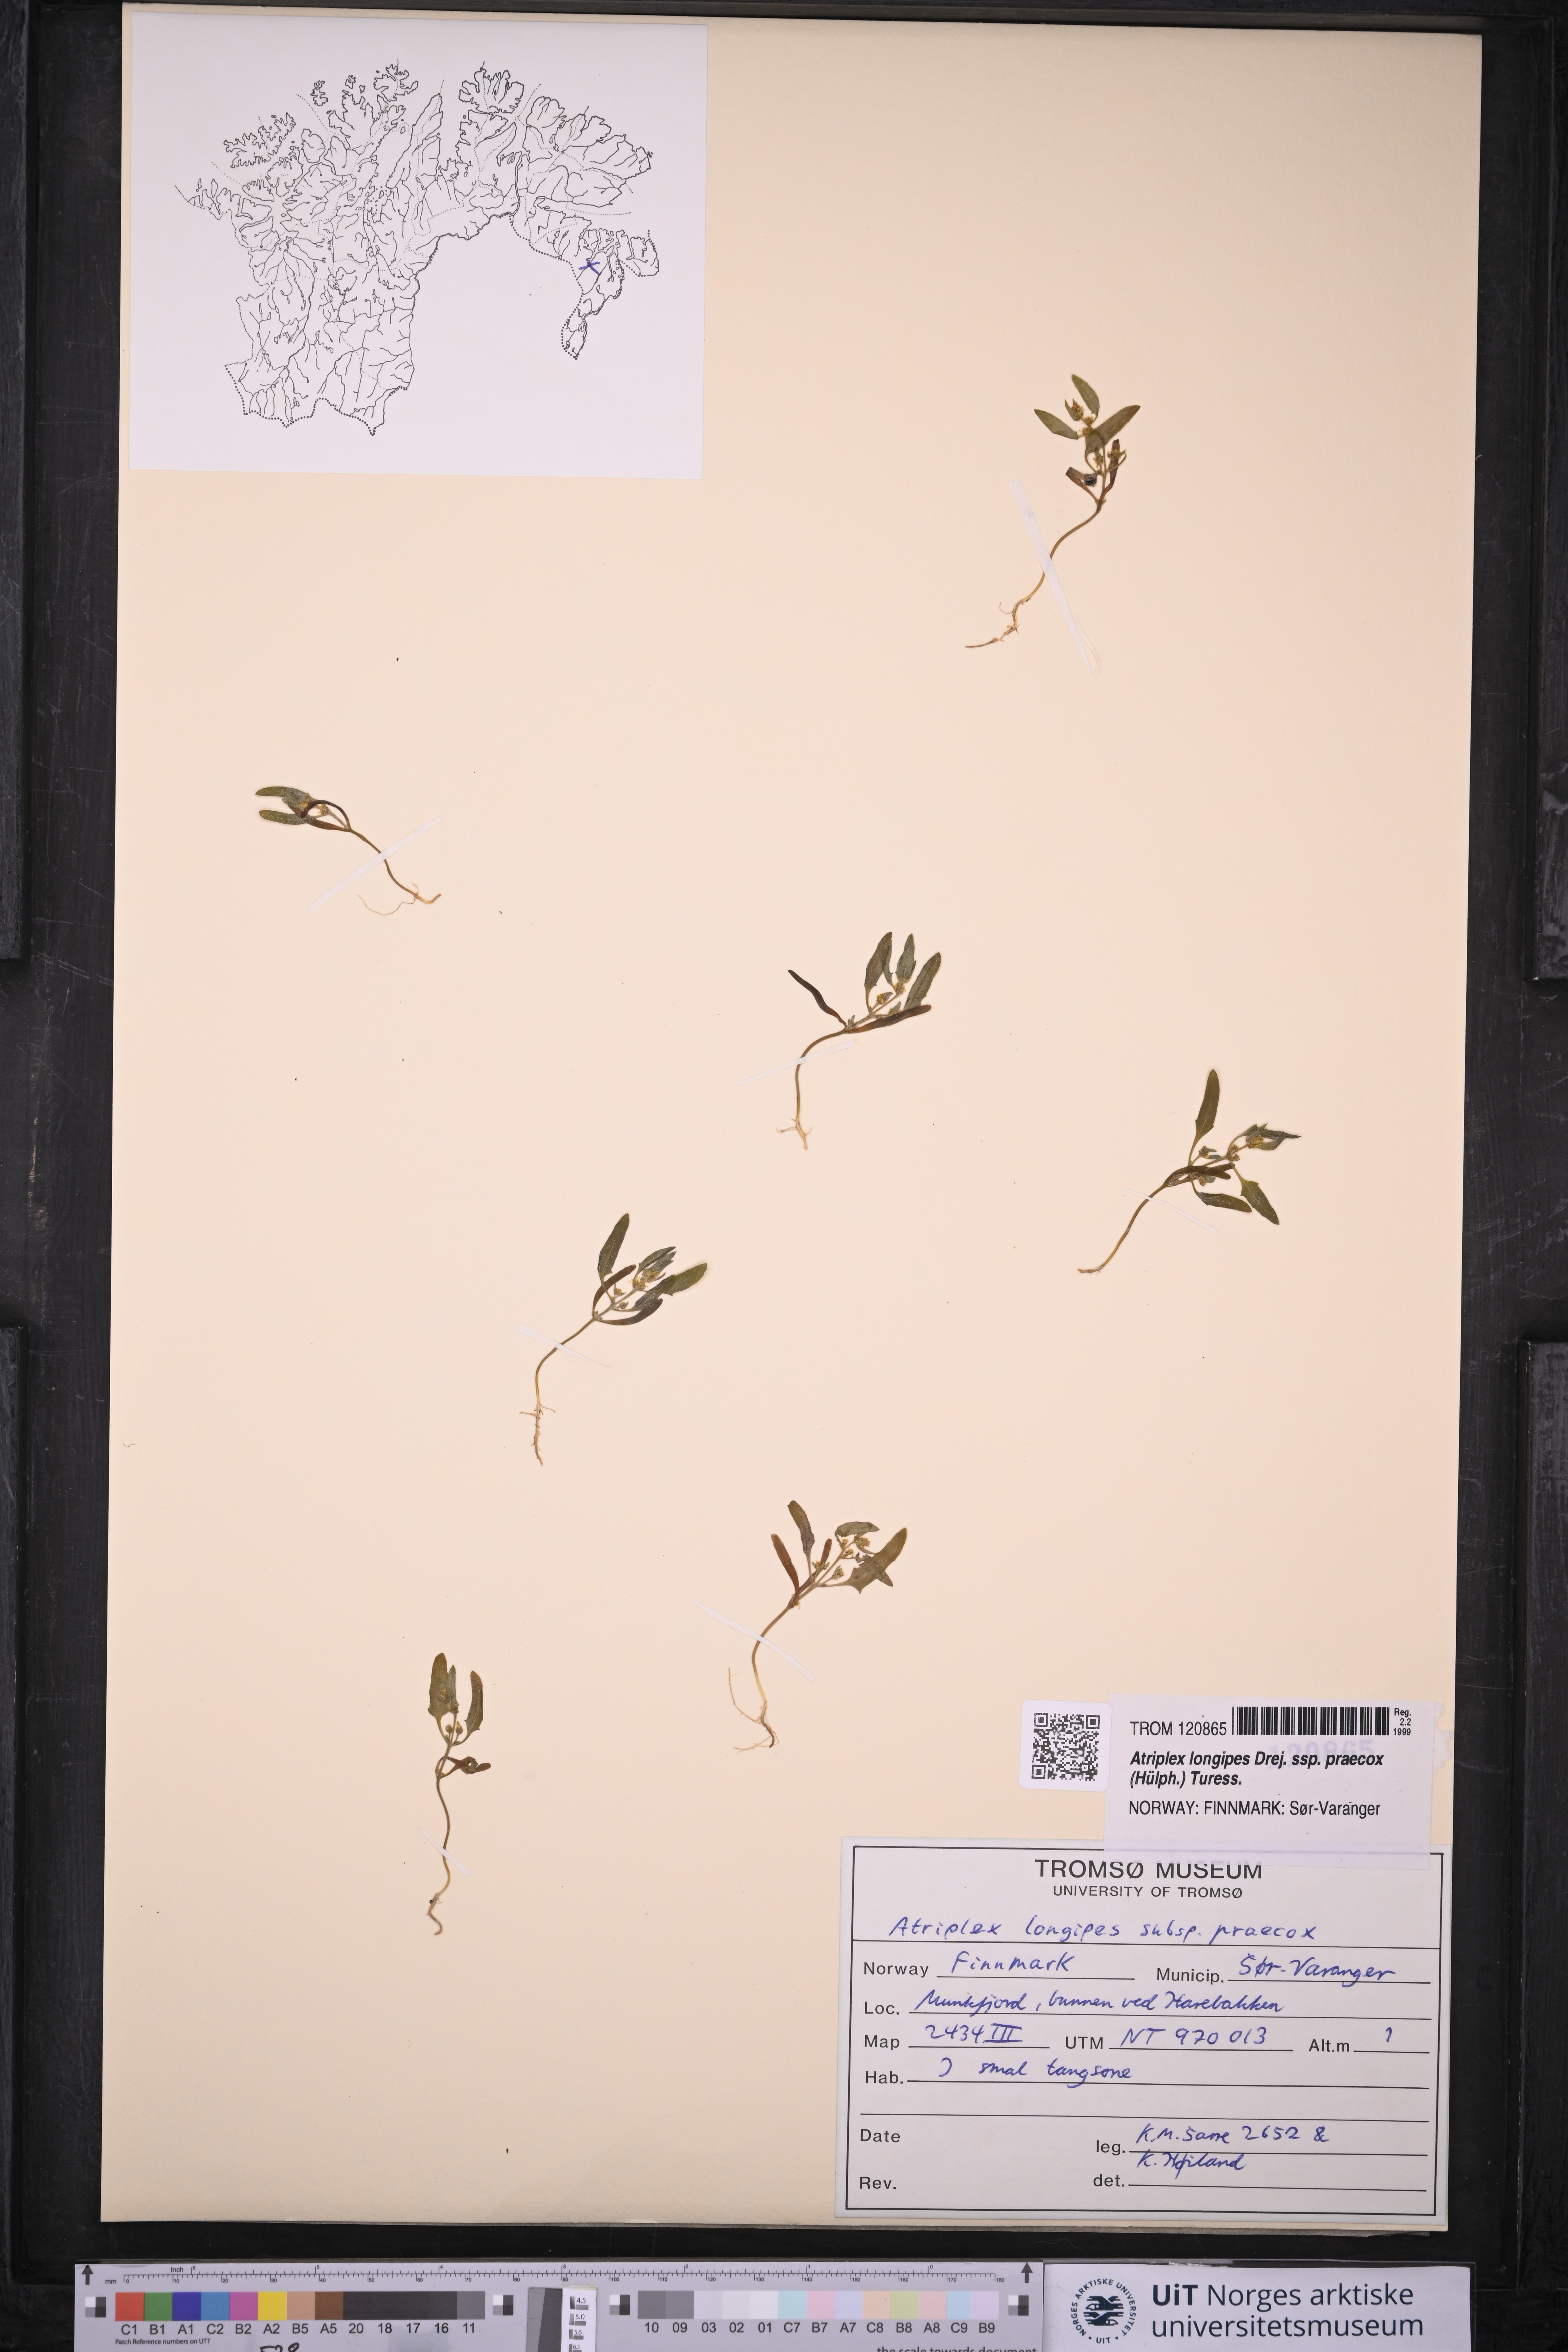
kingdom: Plantae
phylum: Tracheophyta
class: Magnoliopsida
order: Caryophyllales
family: Amaranthaceae
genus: Atriplex
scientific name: Atriplex praecox
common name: Early orache
